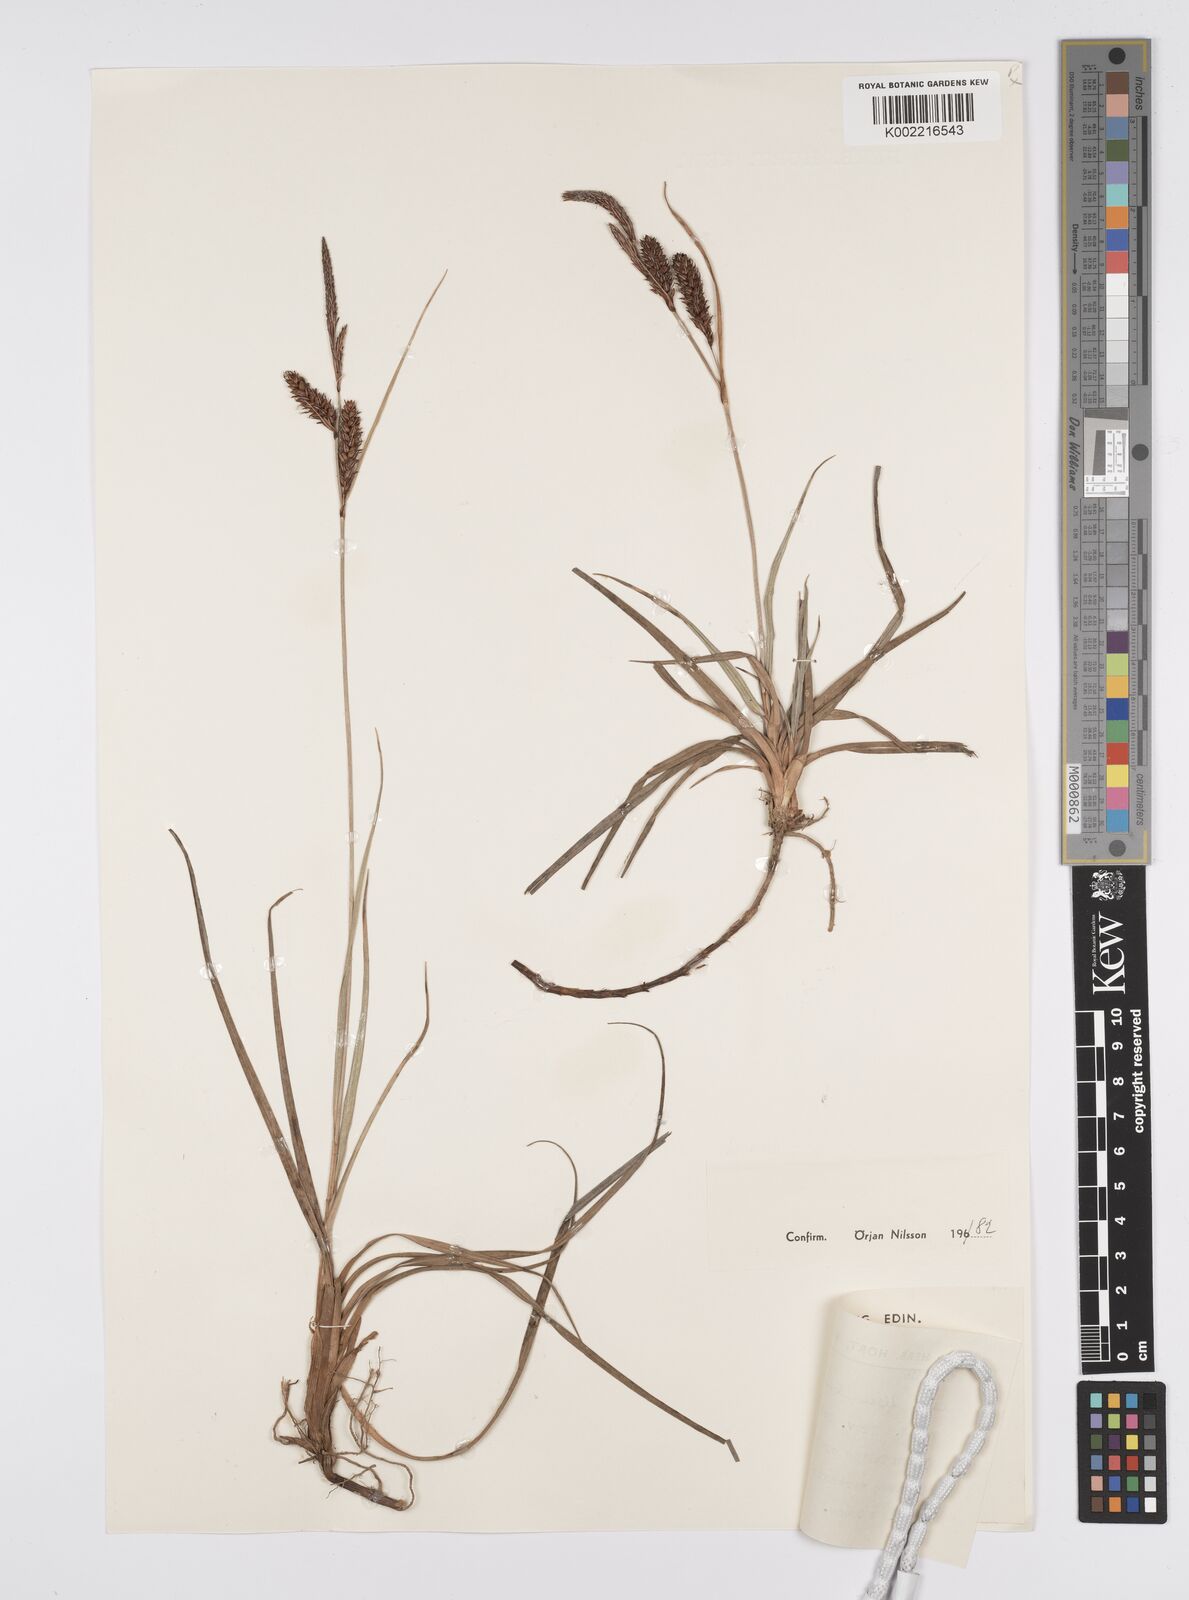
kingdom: Plantae
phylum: Tracheophyta
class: Liliopsida
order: Poales
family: Cyperaceae
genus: Carex
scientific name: Carex flacca
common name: Glaucous sedge
